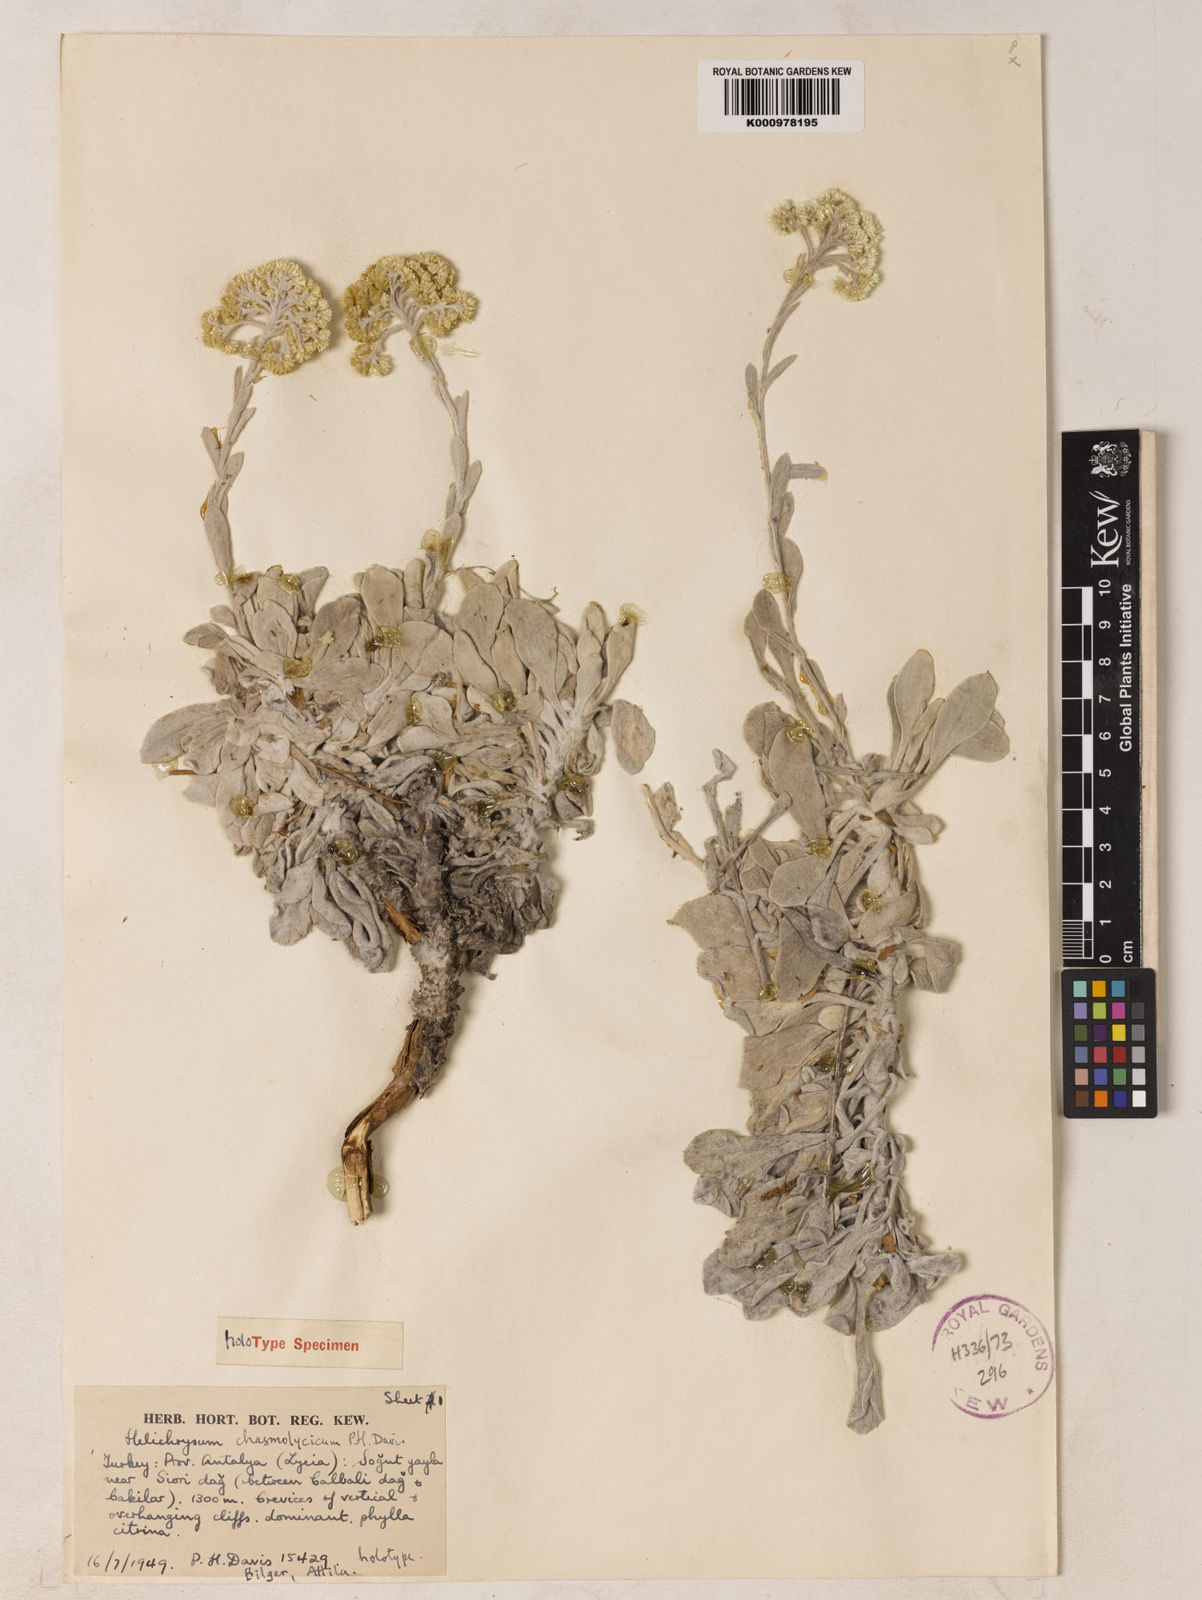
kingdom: Plantae
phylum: Tracheophyta
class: Magnoliopsida
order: Asterales
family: Asteraceae
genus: Helichrysum
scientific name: Helichrysum
